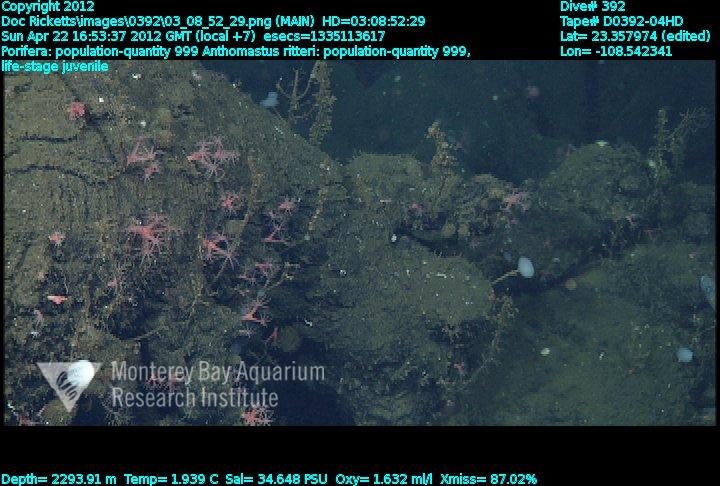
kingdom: Animalia
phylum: Porifera
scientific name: Porifera
